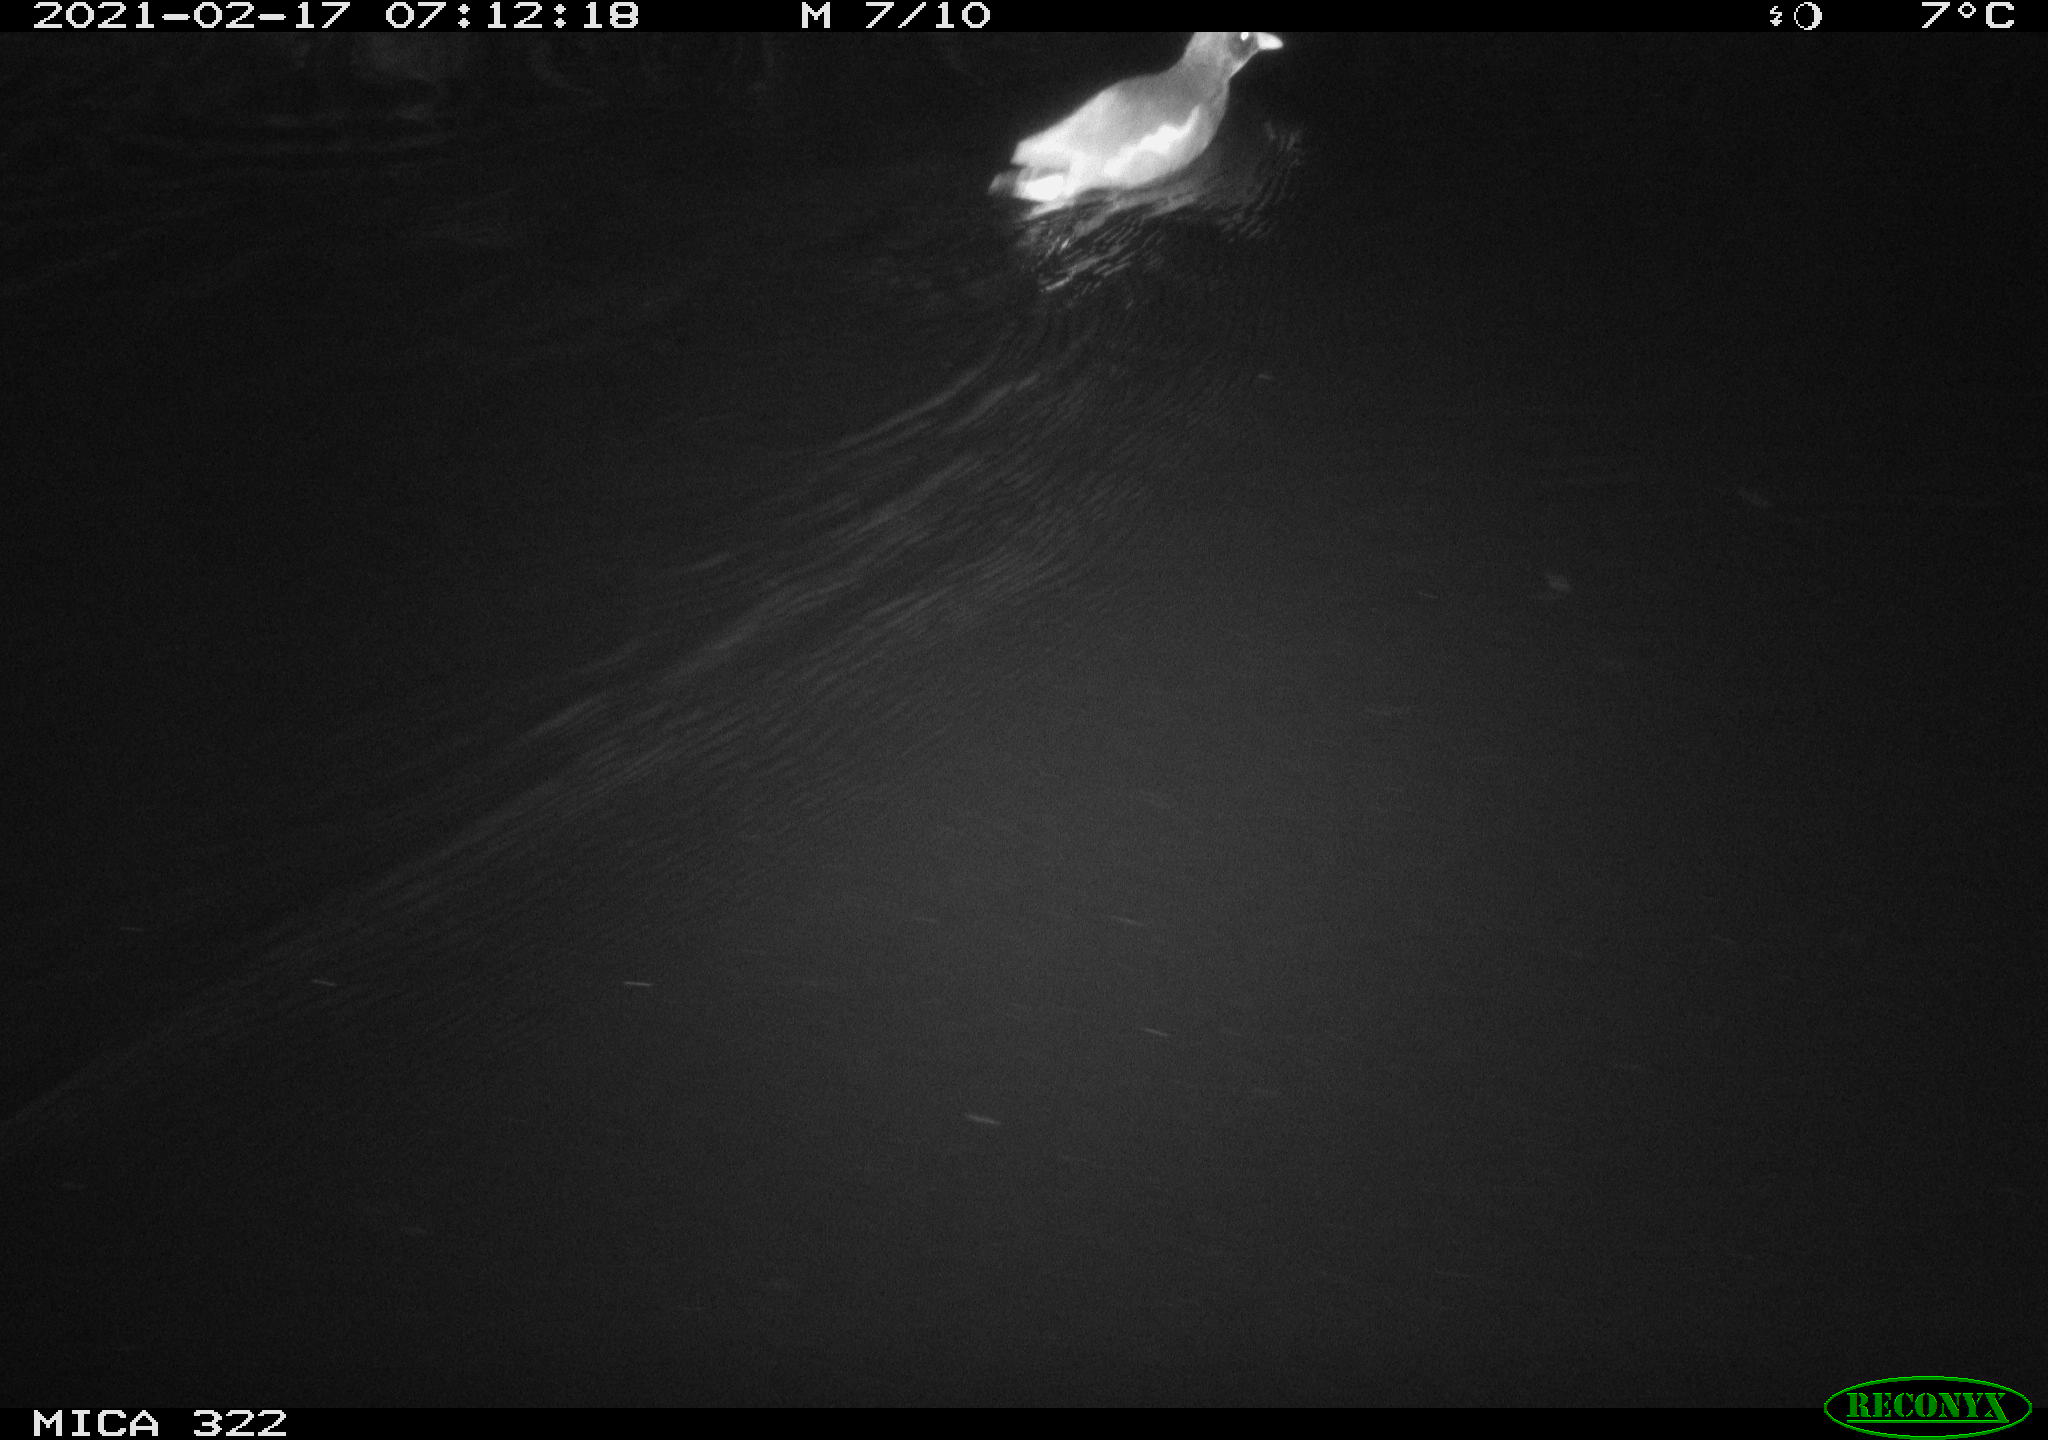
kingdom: Animalia
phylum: Chordata
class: Aves
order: Gruiformes
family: Rallidae
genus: Gallinula
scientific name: Gallinula chloropus
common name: Common moorhen
